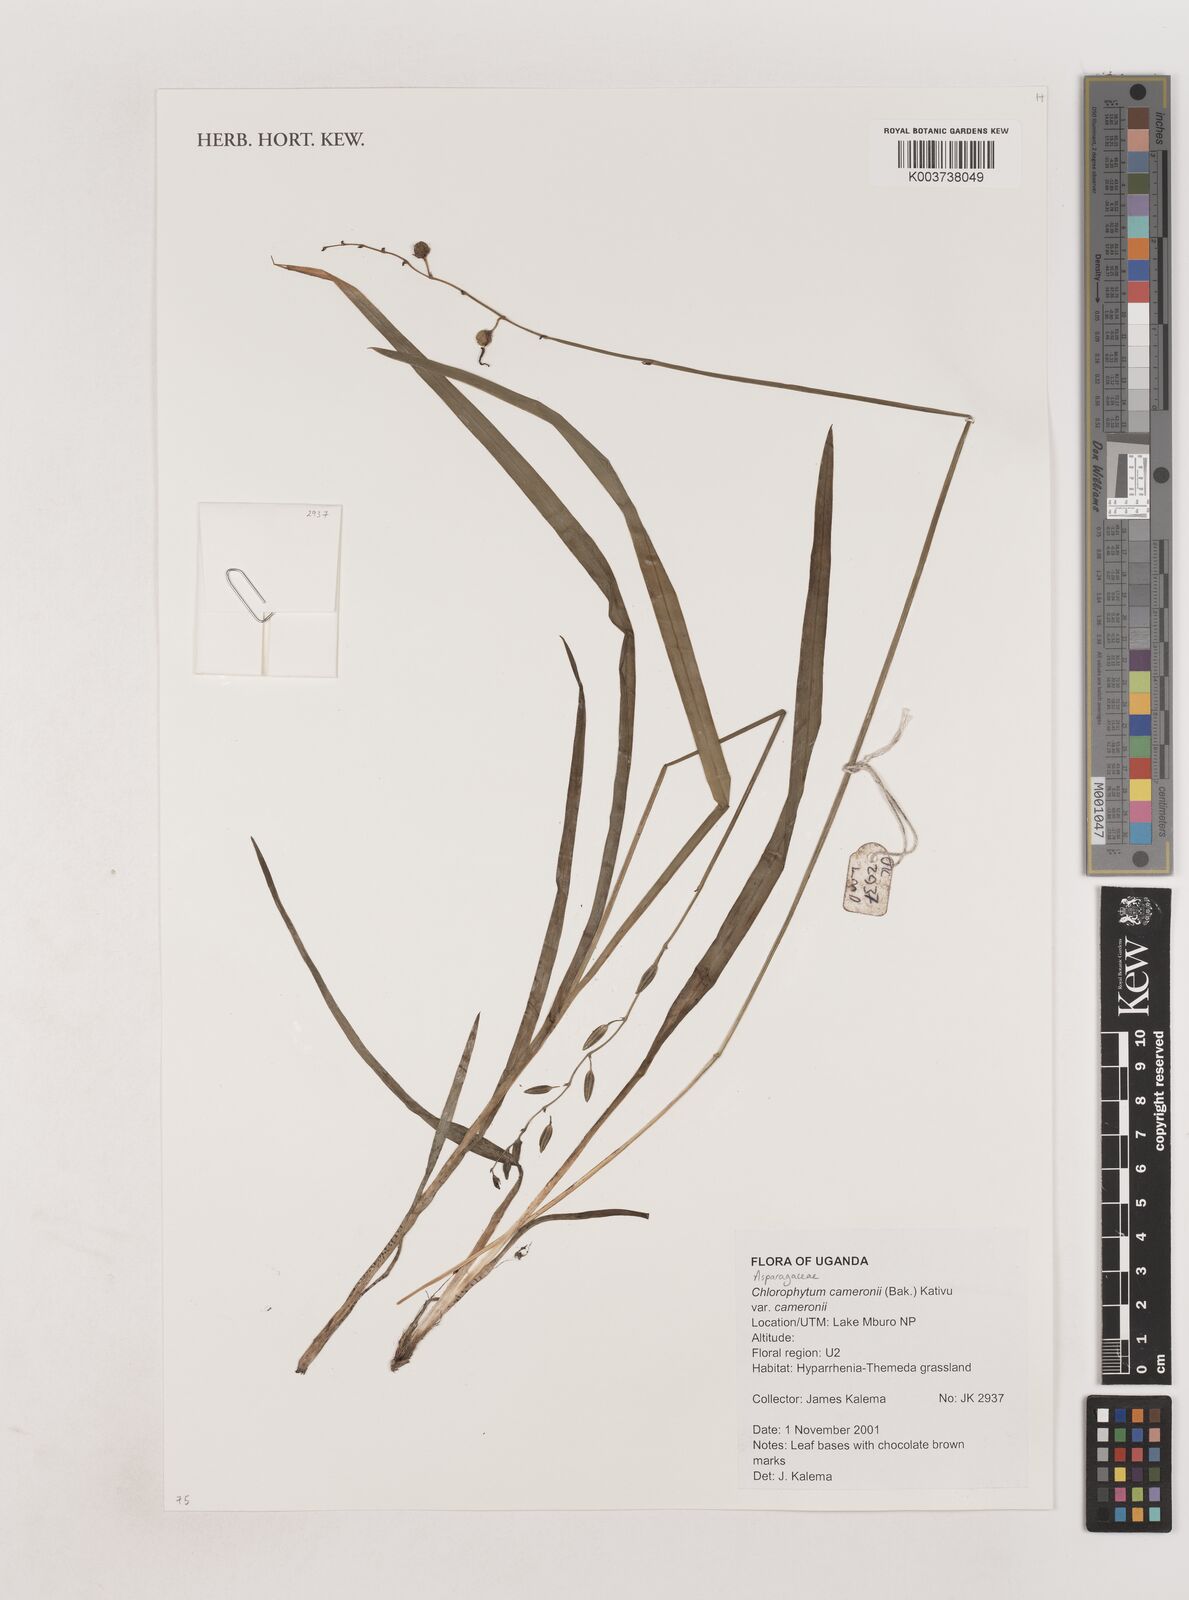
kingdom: Plantae
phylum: Tracheophyta
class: Liliopsida
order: Asparagales
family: Asparagaceae
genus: Chlorophytum
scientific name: Chlorophytum cameronii
